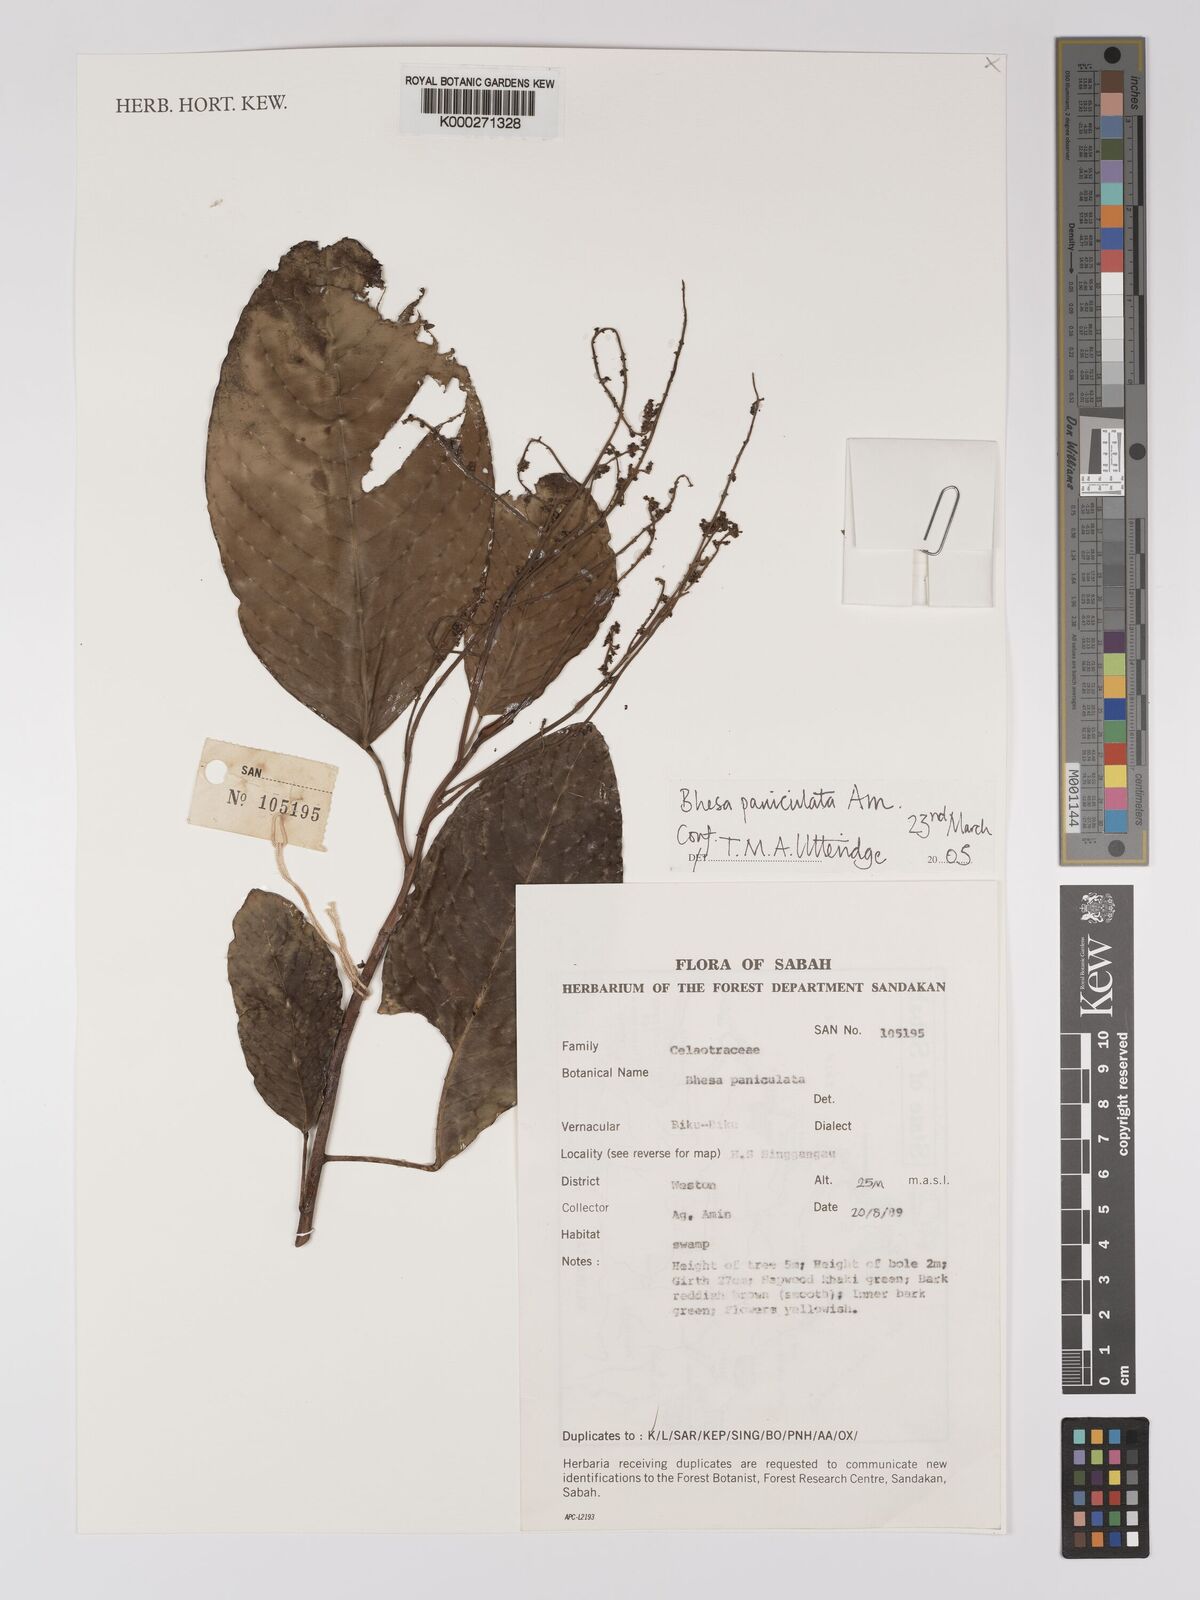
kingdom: Plantae
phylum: Tracheophyta
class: Magnoliopsida
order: Malpighiales
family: Centroplacaceae
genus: Bhesa
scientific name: Bhesa paniculata
